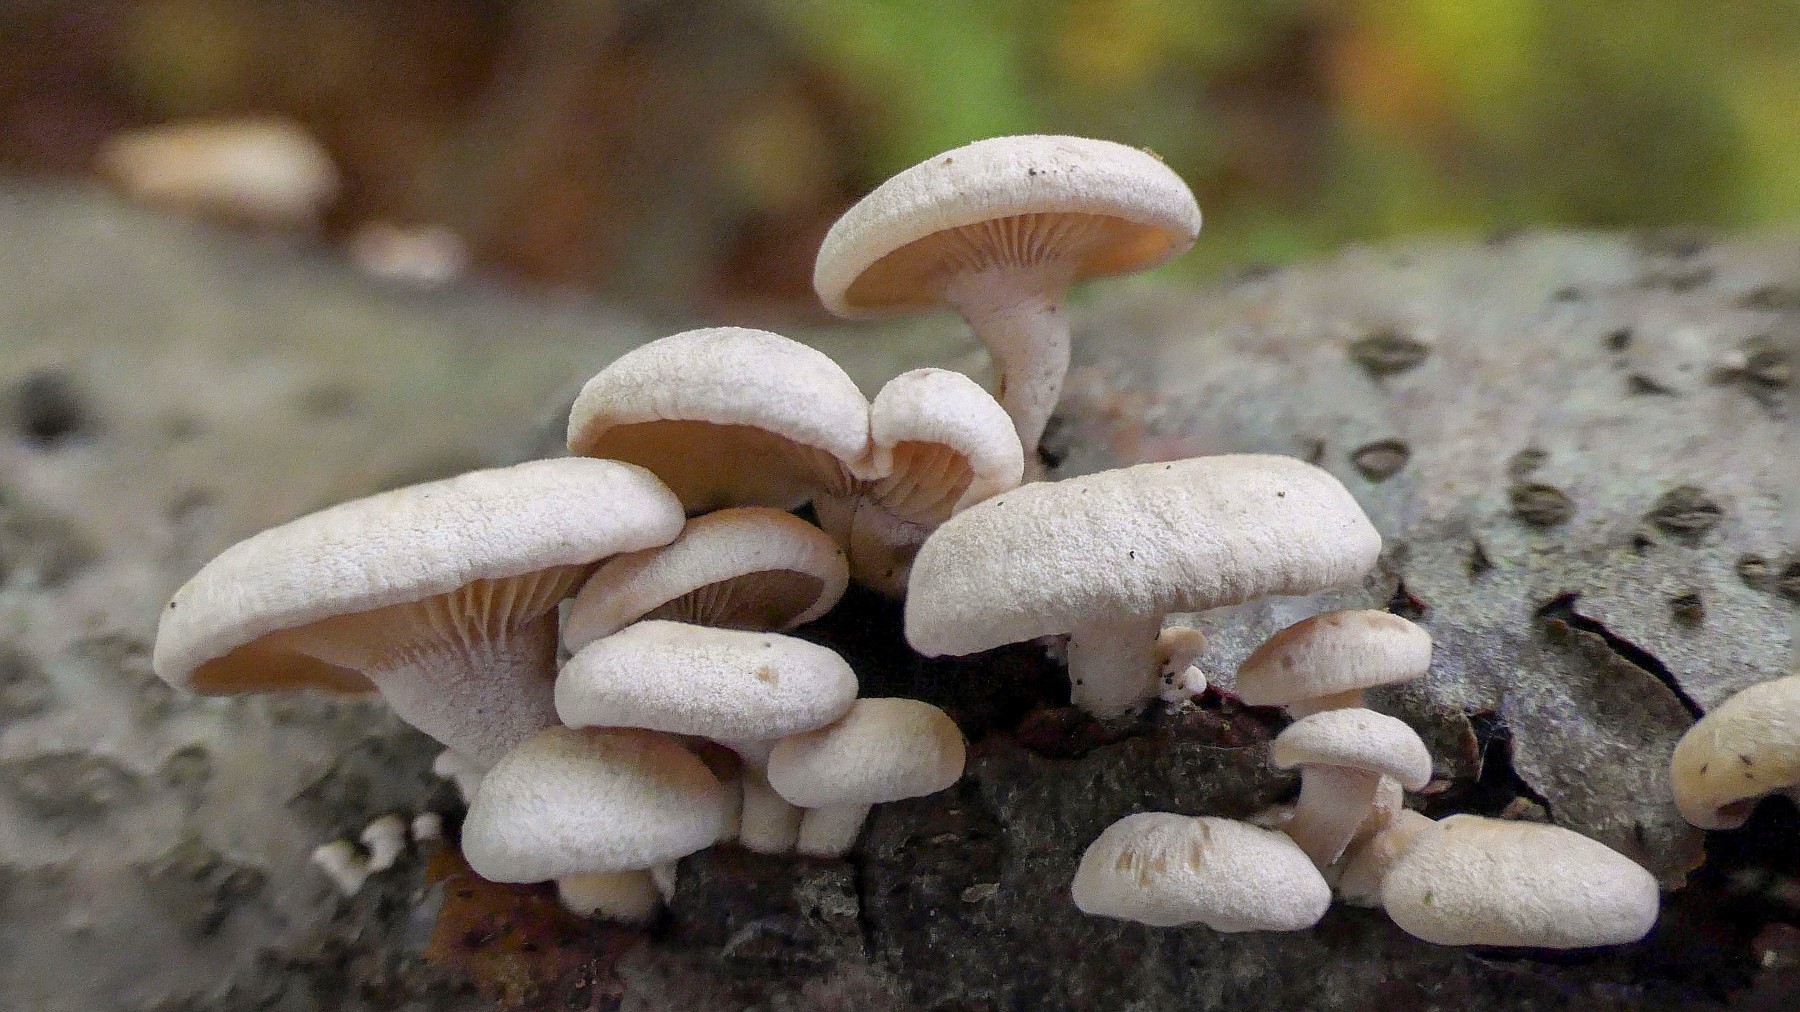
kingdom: Fungi
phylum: Basidiomycota
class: Agaricomycetes
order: Agaricales
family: Mycenaceae
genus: Panellus
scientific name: Panellus stipticus
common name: kliddet epaulethat
